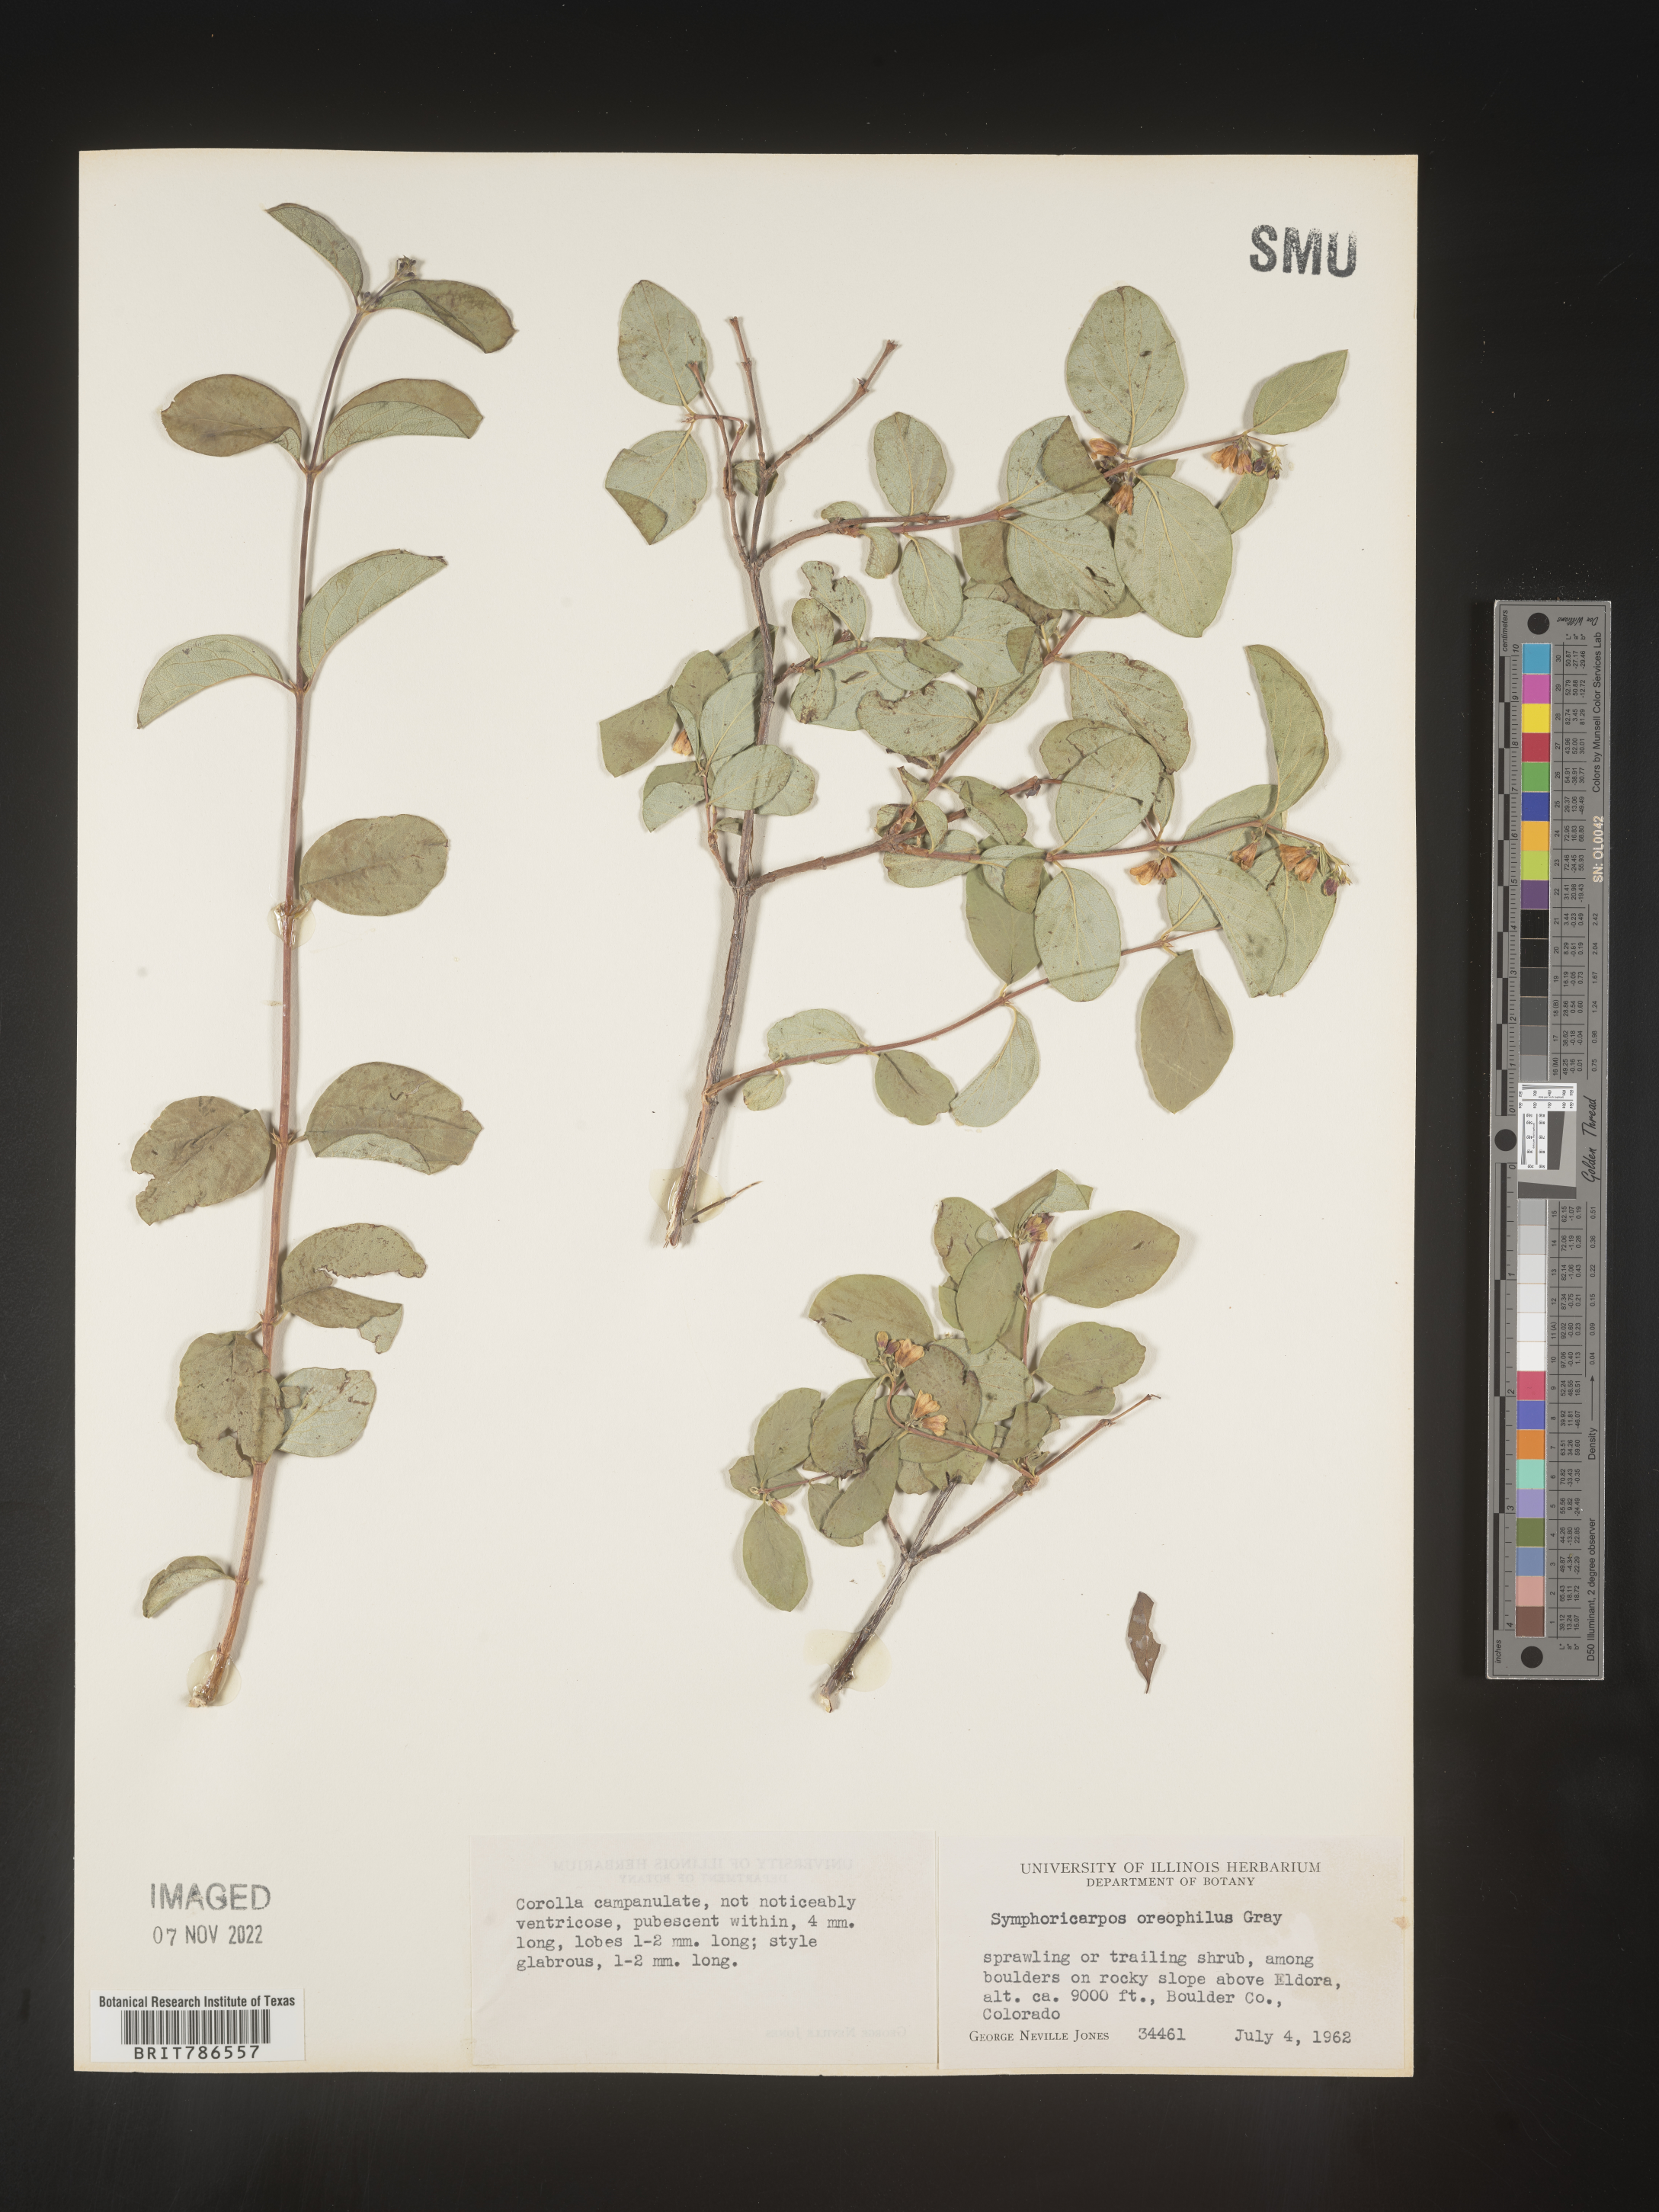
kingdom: Plantae
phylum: Tracheophyta
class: Magnoliopsida
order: Dipsacales
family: Caprifoliaceae
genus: Symphoricarpos
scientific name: Symphoricarpos oreophilus
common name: Mountain snowberry
